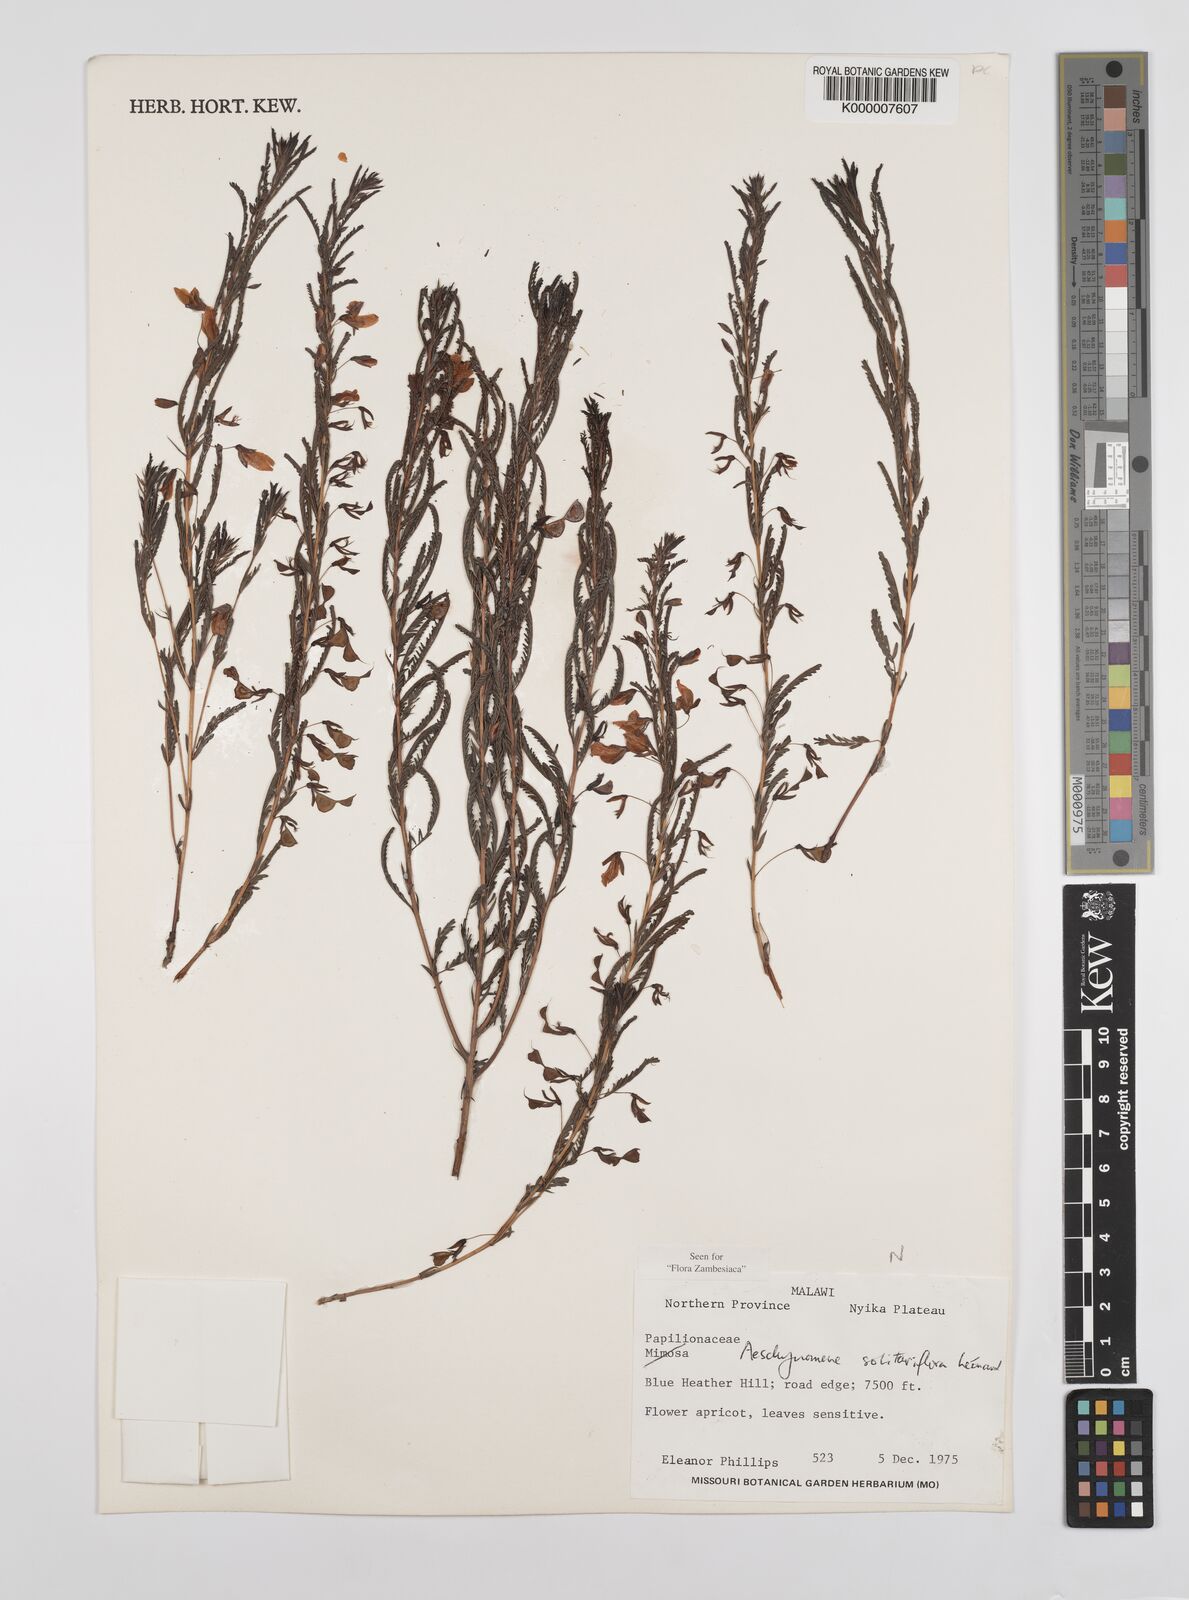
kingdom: Plantae
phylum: Tracheophyta
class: Magnoliopsida
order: Fabales
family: Fabaceae
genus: Aeschynomene
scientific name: Aeschynomene solitariiflora
